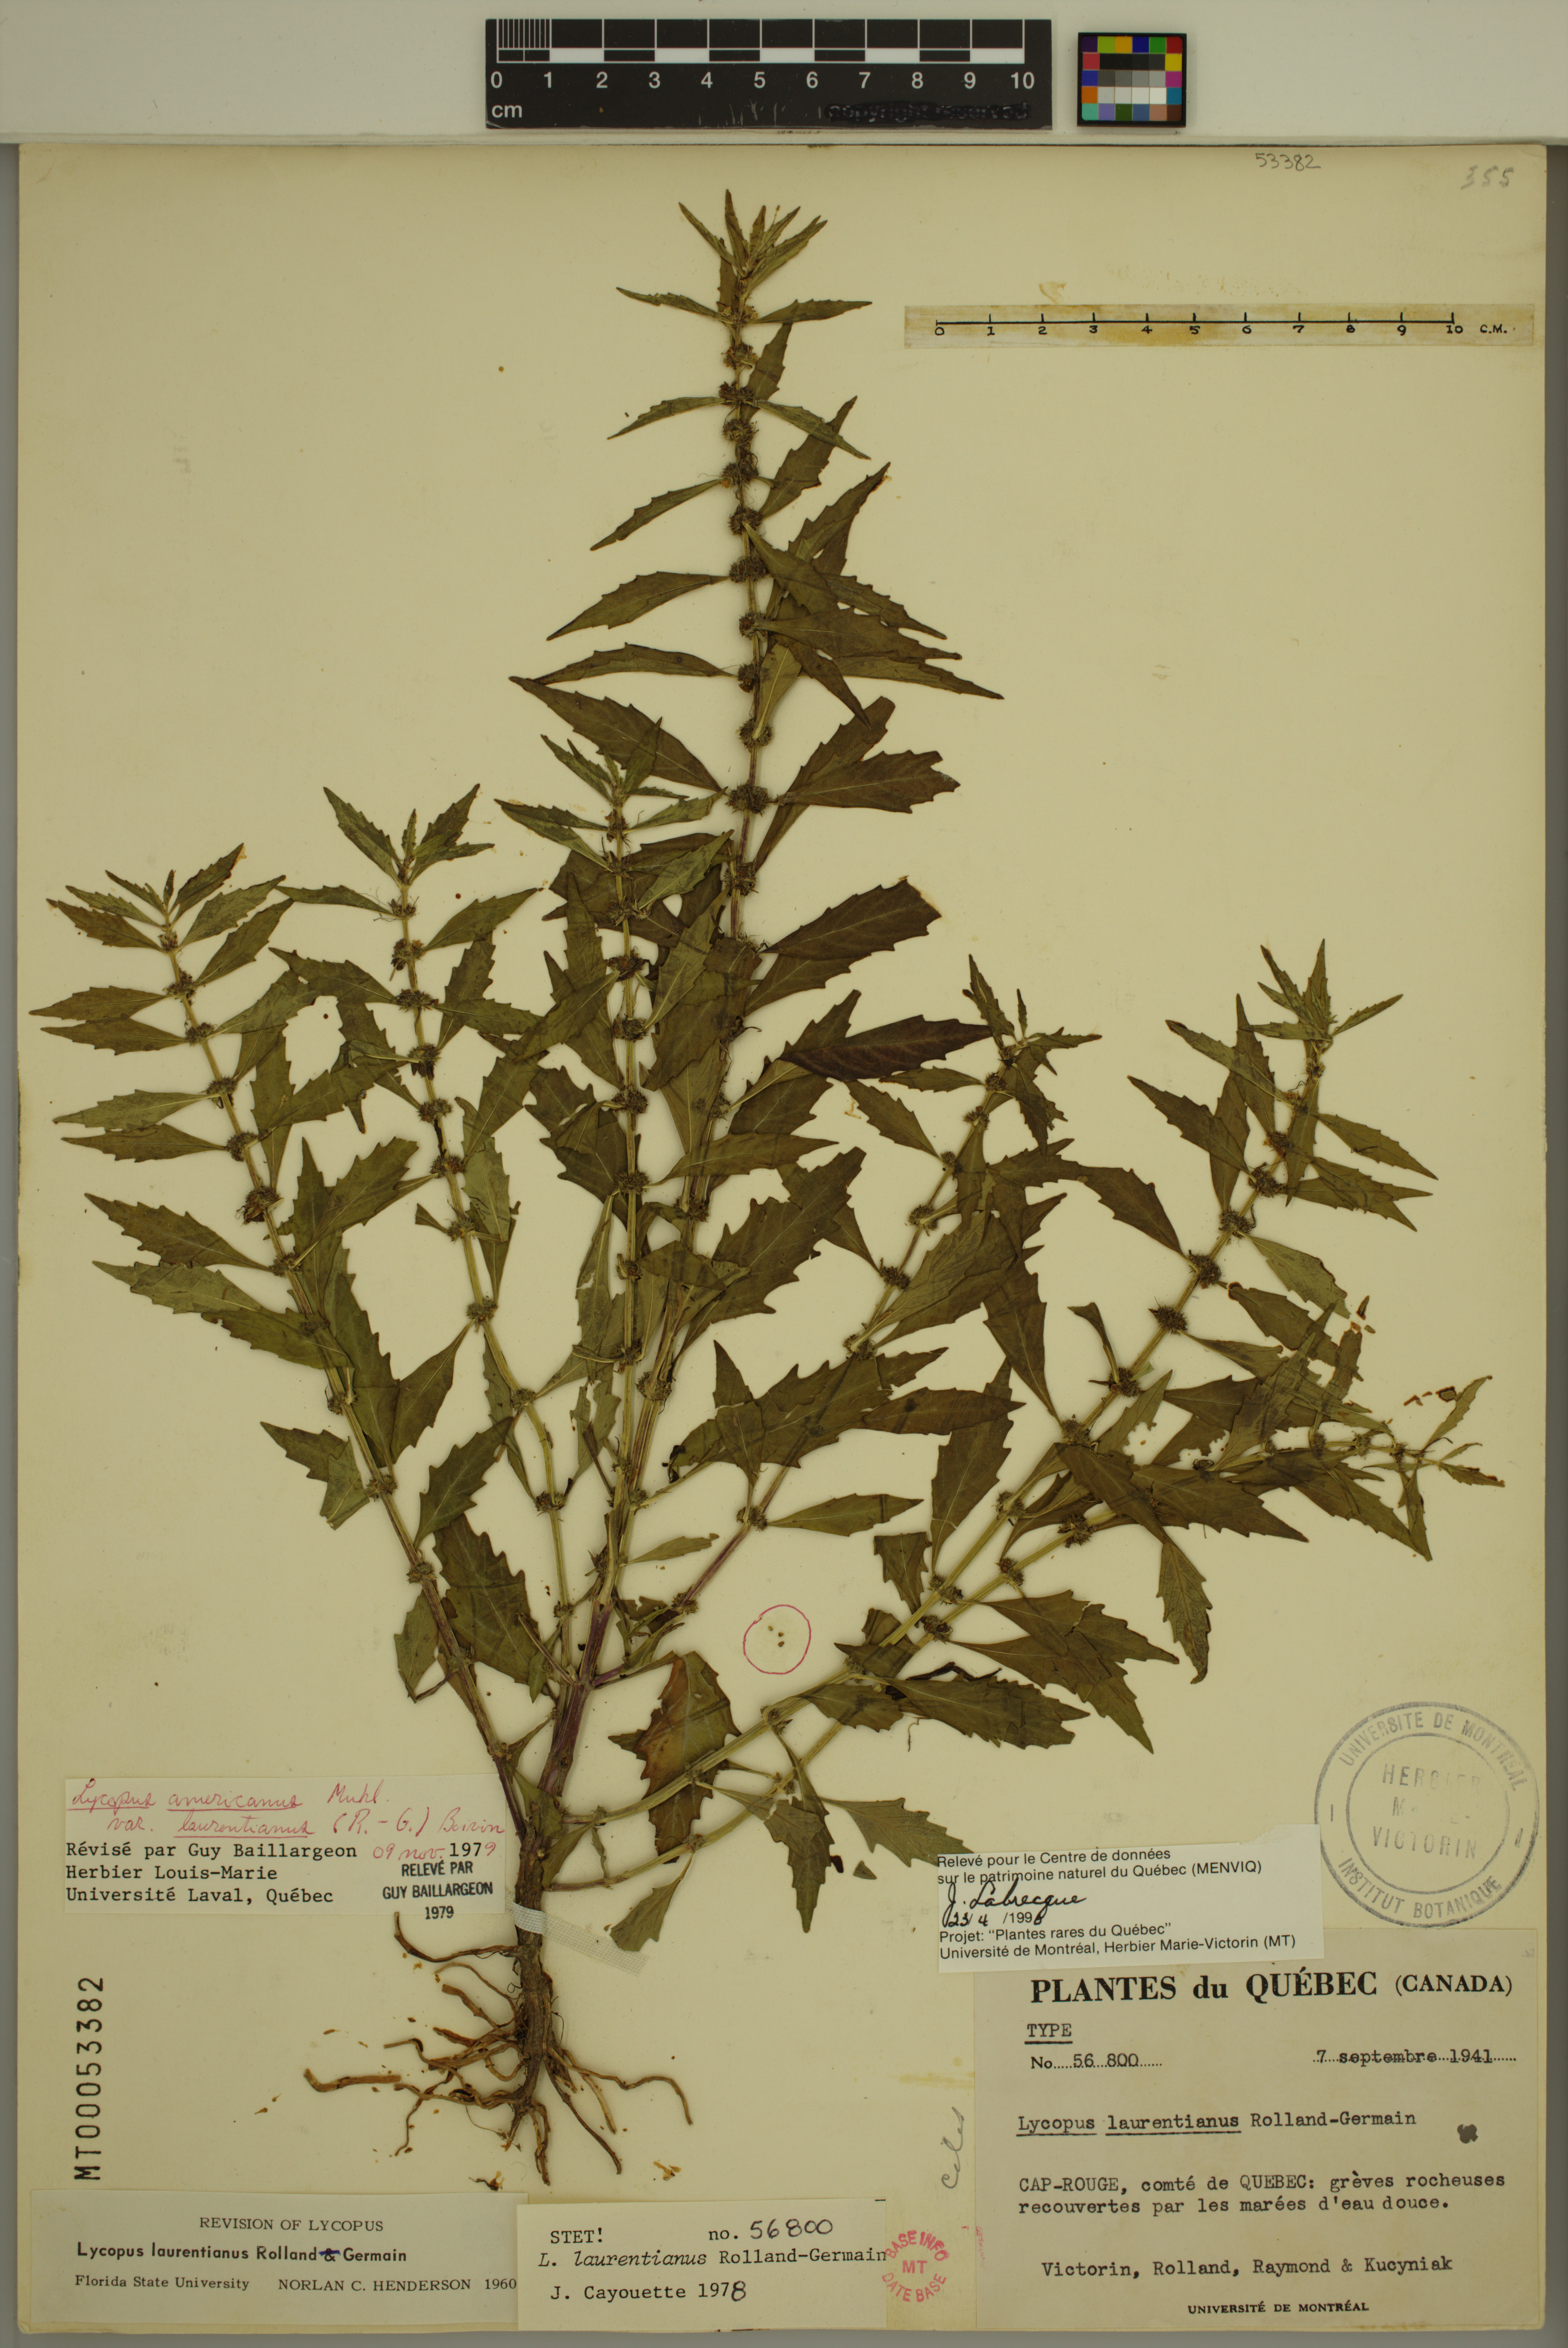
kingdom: Plantae
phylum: Tracheophyta
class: Magnoliopsida
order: Lamiales
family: Lamiaceae
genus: Lycopus
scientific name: Lycopus americanus
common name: American bugleweed
